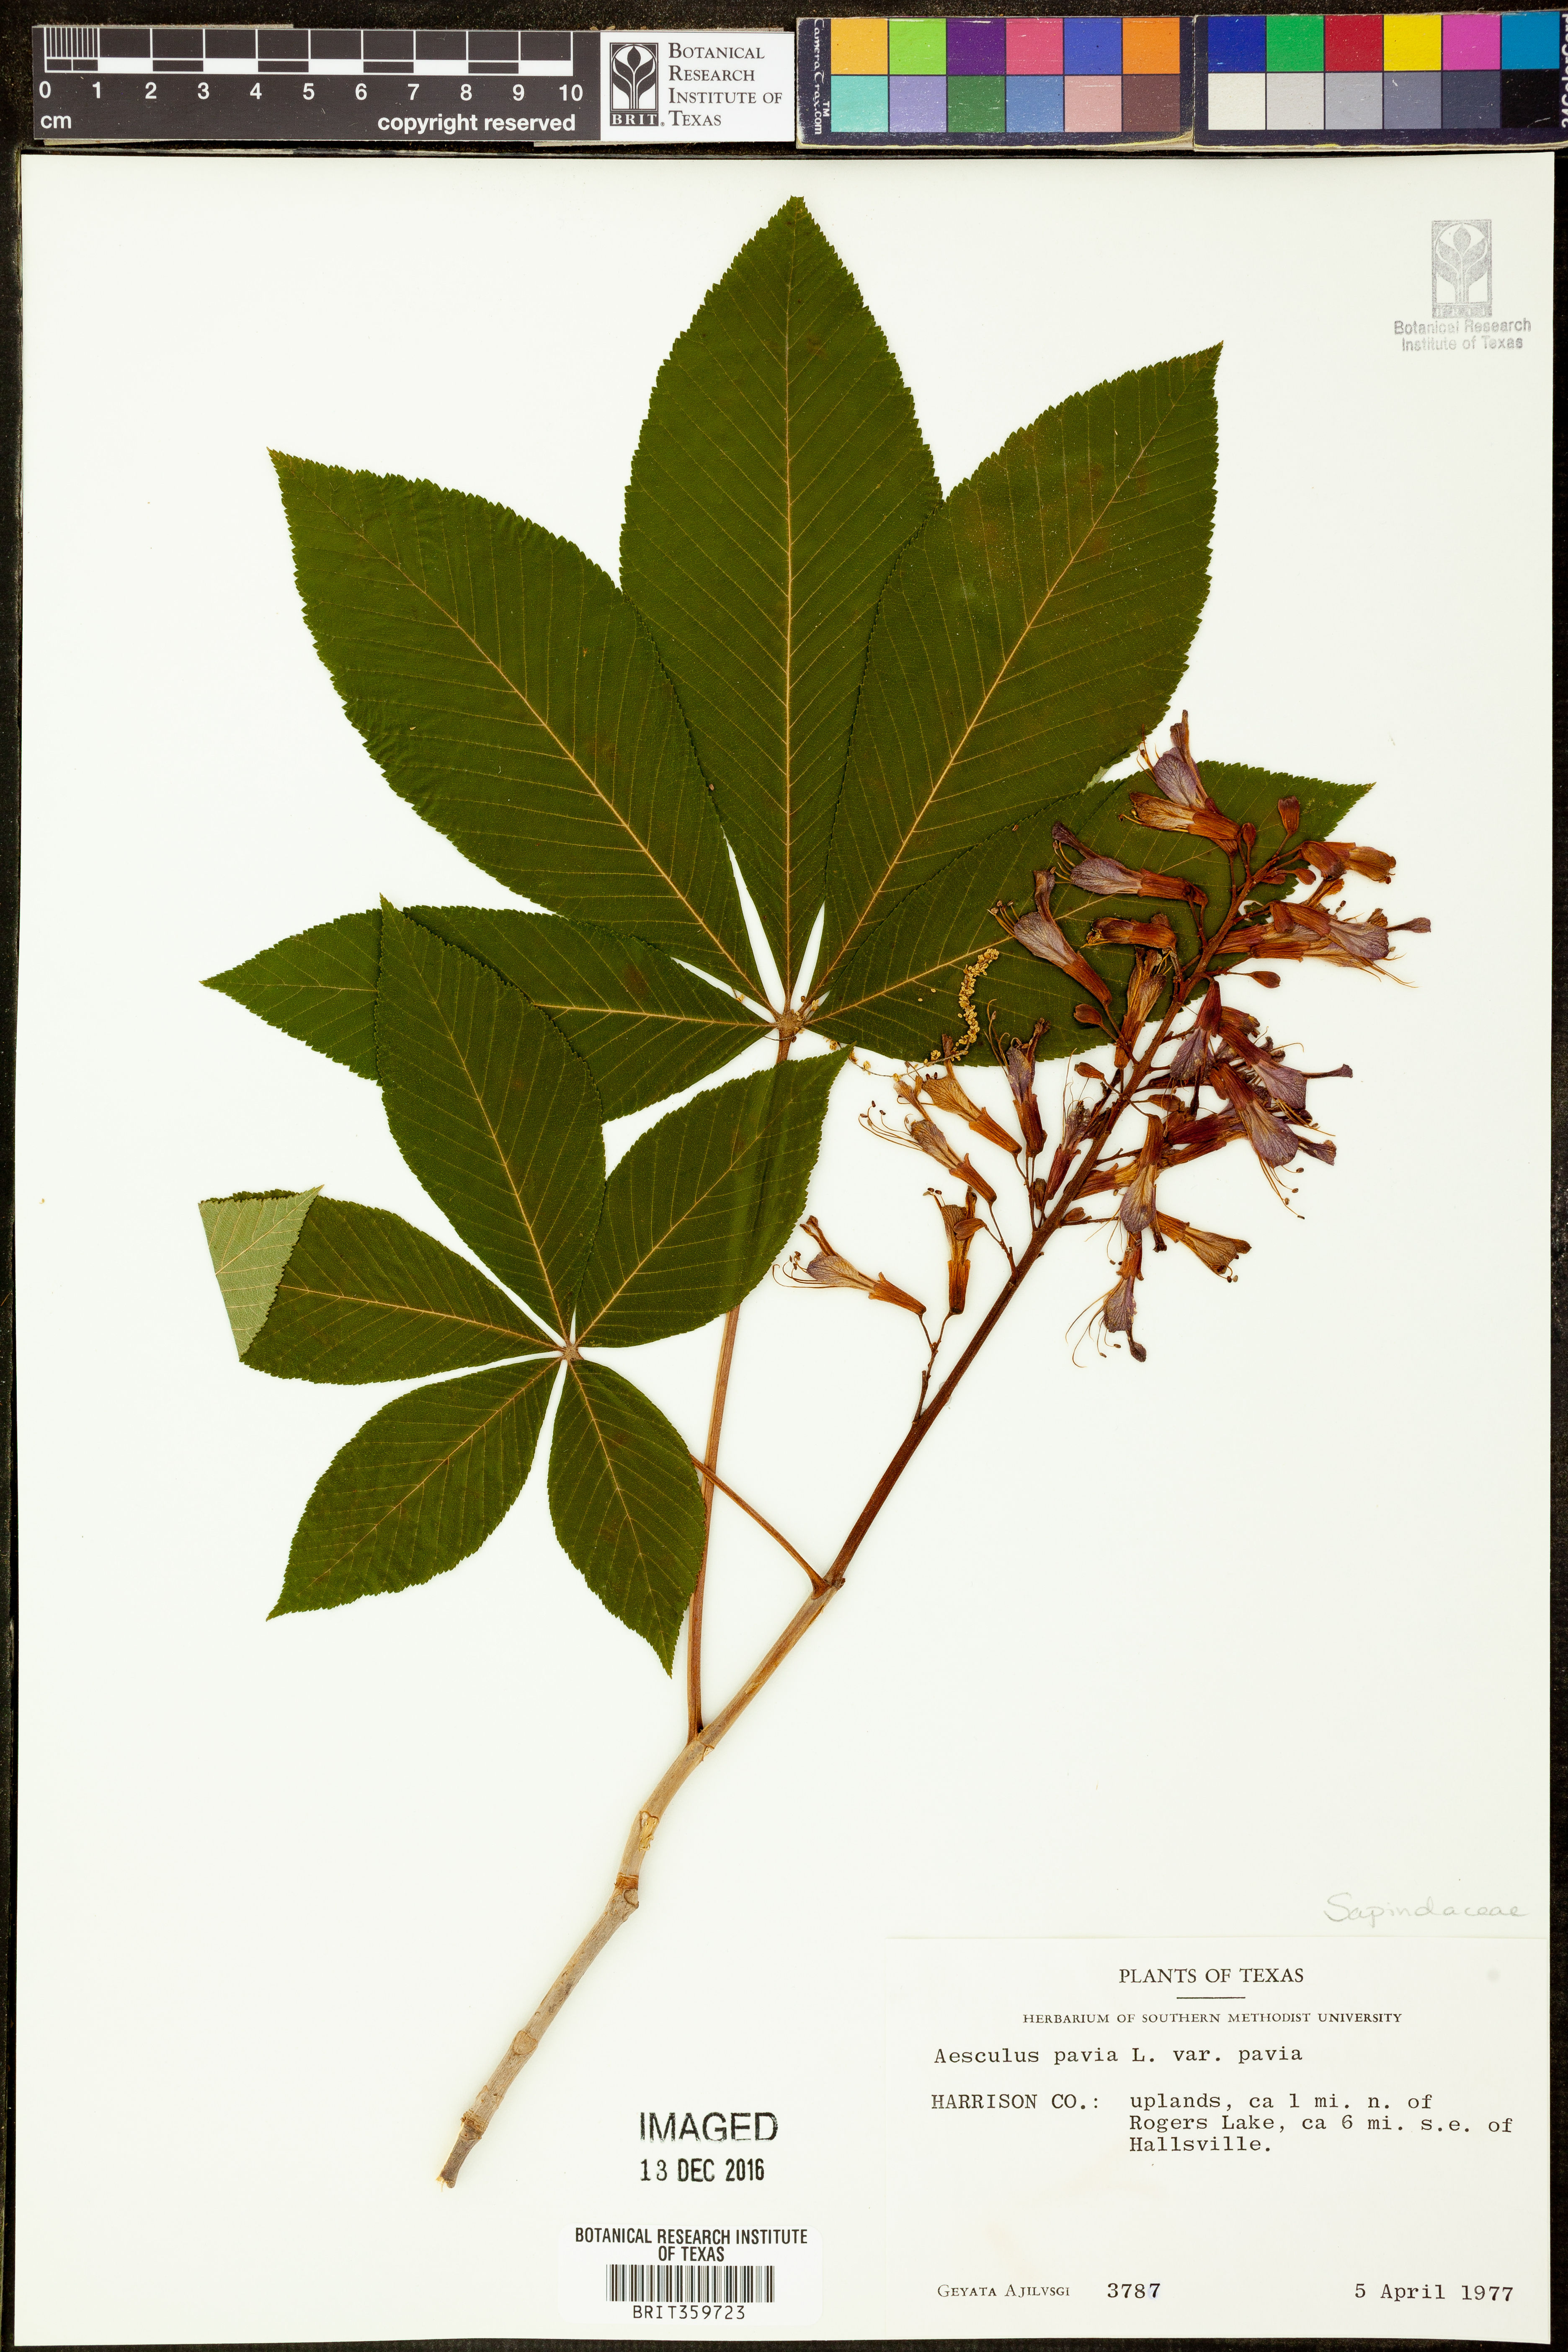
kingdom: Plantae
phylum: Tracheophyta
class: Magnoliopsida
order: Sapindales
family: Sapindaceae
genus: Aesculus
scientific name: Aesculus pavia
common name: Red buckeye
